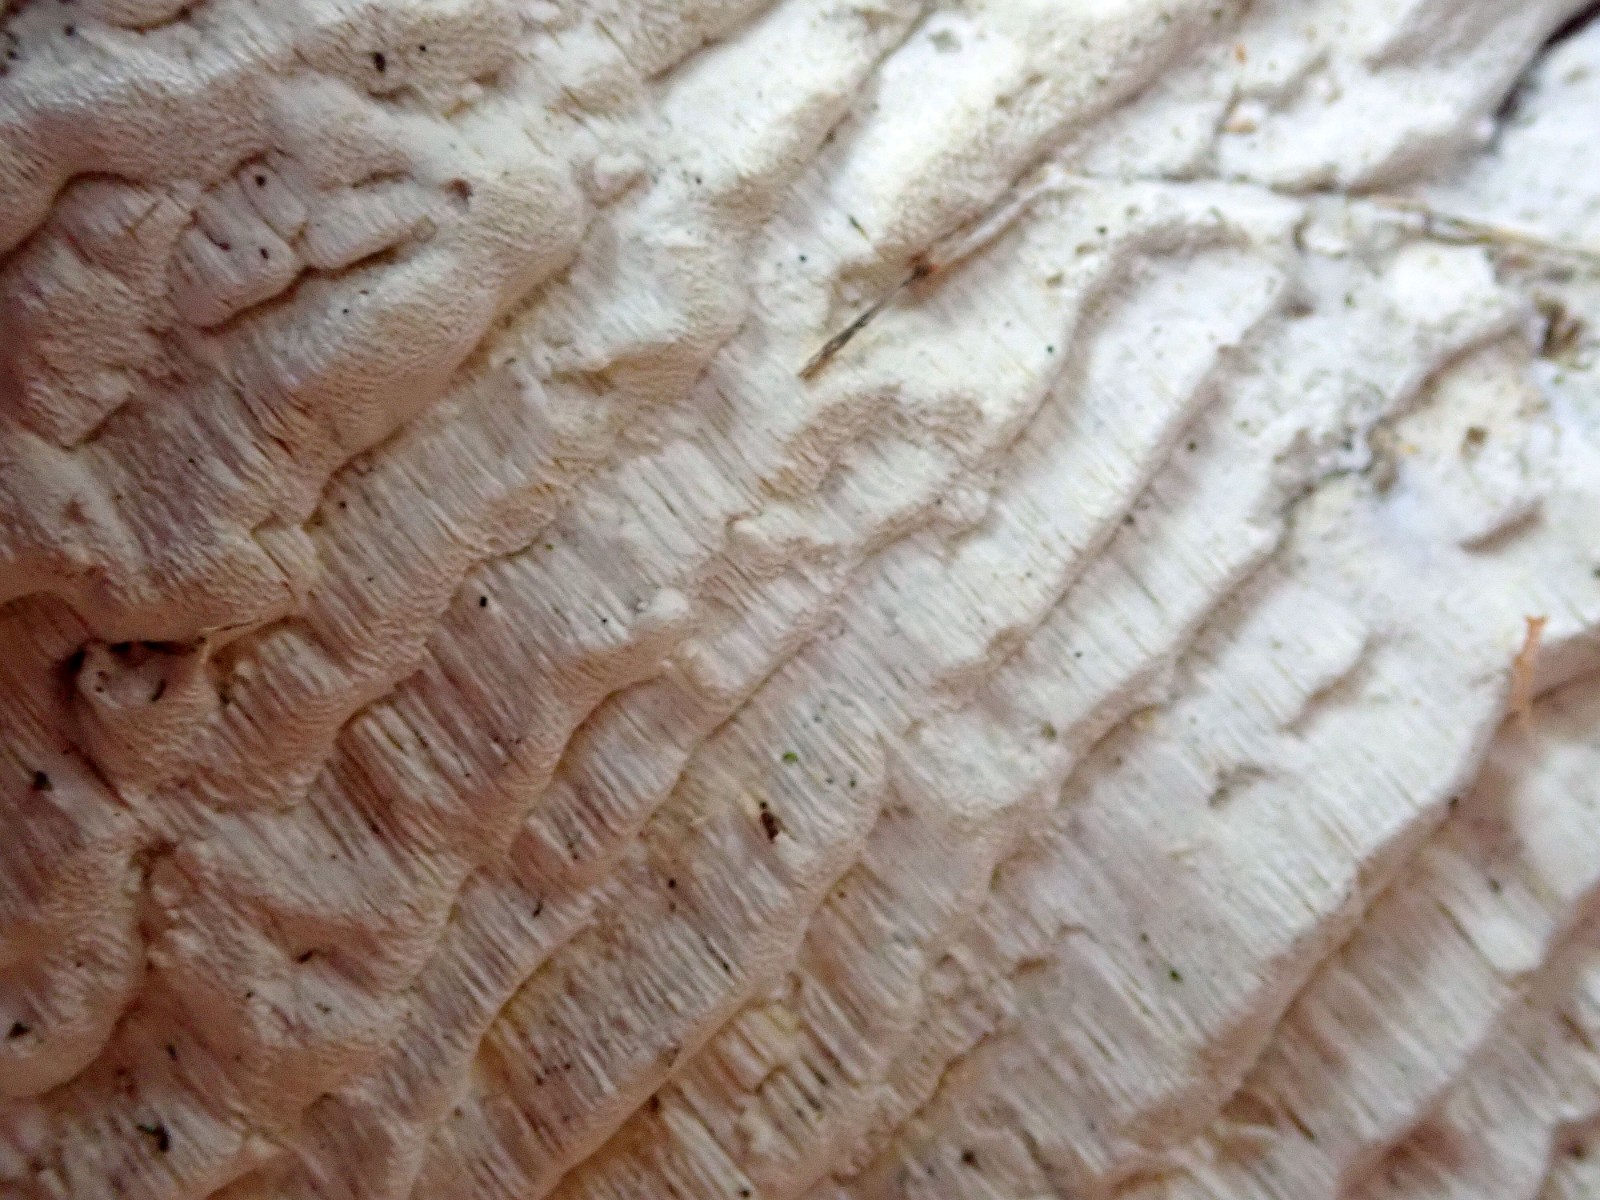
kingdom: Fungi
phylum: Basidiomycota
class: Agaricomycetes
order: Polyporales
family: Fomitopsidaceae
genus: Neoantrodia
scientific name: Neoantrodia serialis
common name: række-sejporesvamp
